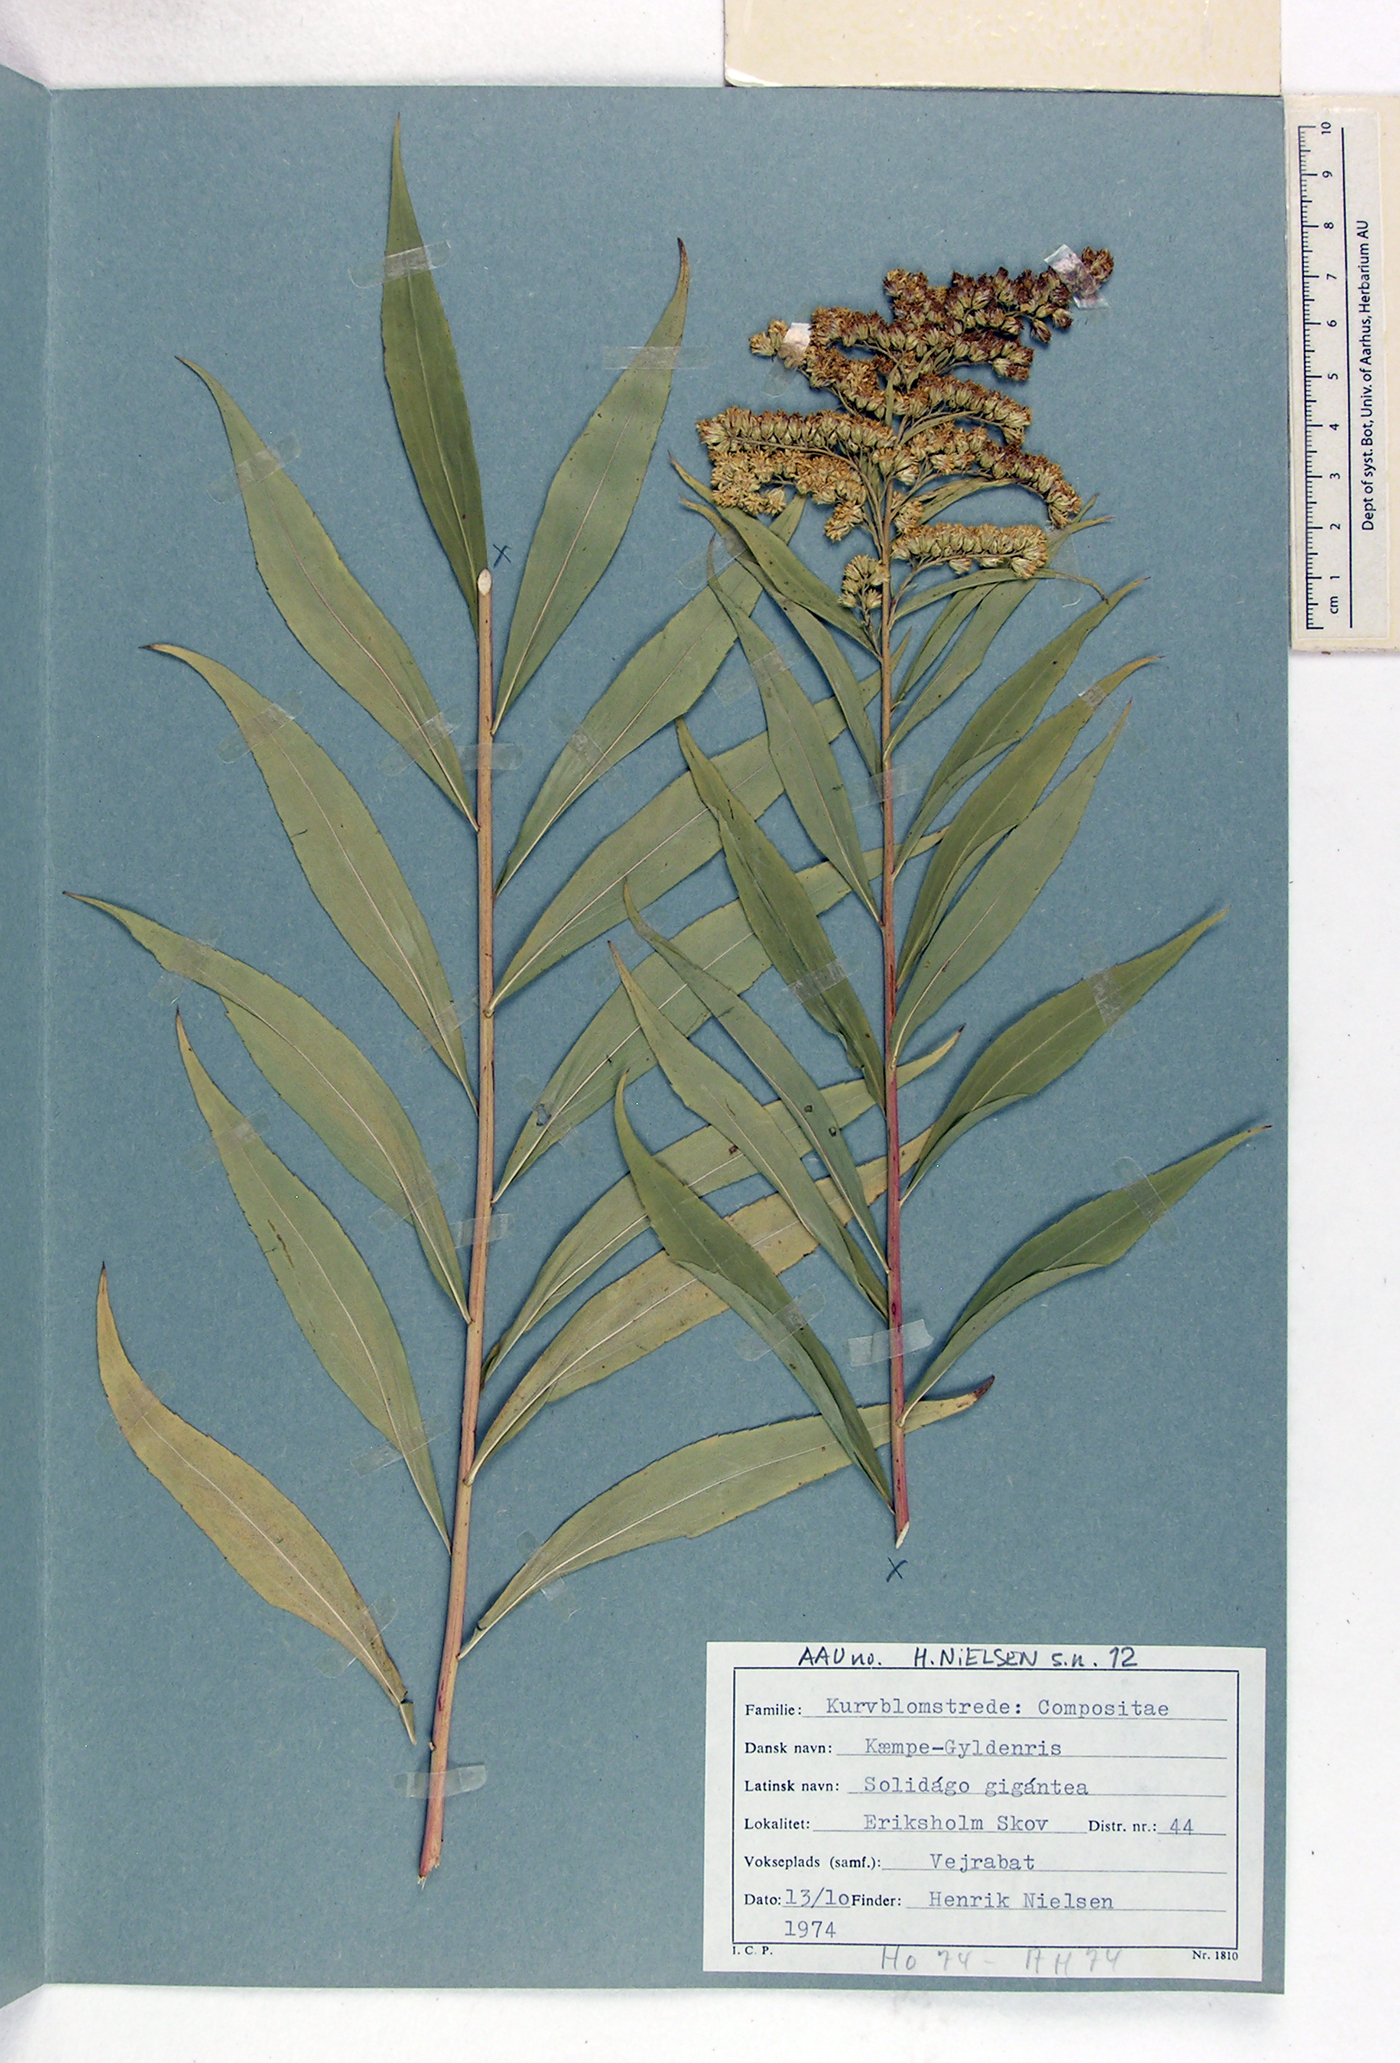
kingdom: Plantae
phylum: Tracheophyta
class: Magnoliopsida
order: Asterales
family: Asteraceae
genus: Solidago
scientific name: Solidago gigantea
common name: Giant goldenrod
